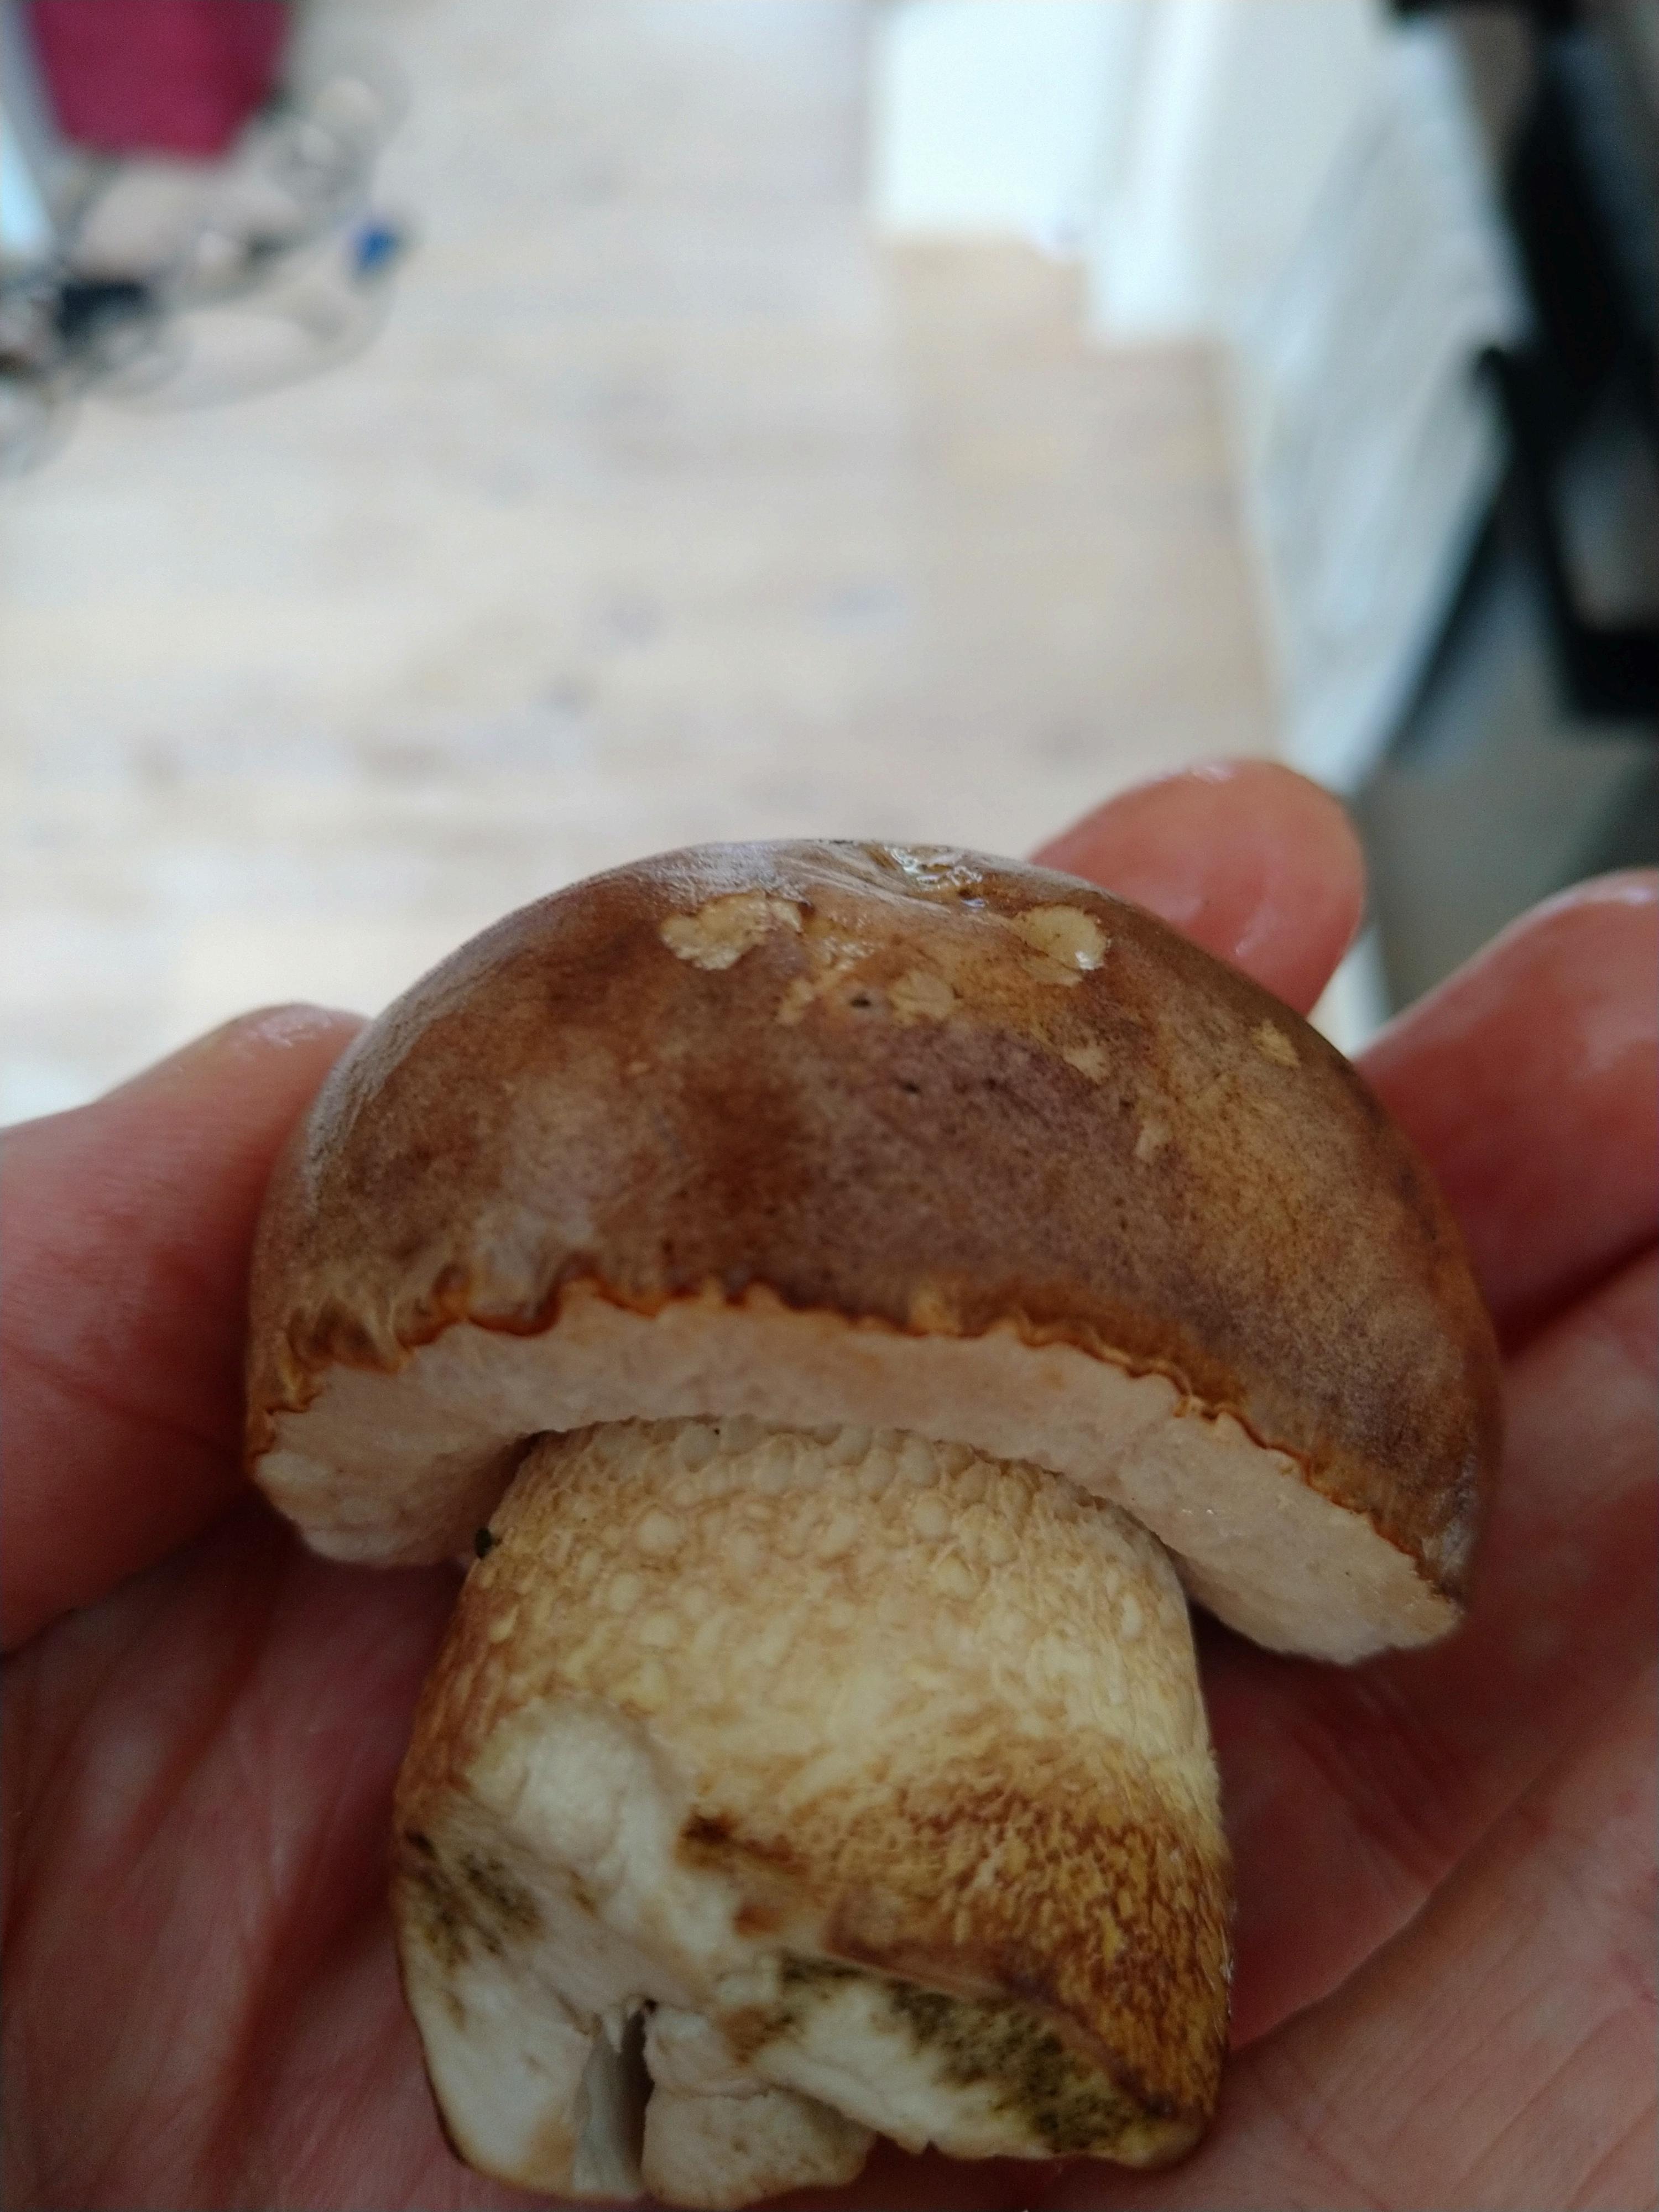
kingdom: Fungi
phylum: Basidiomycota
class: Agaricomycetes
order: Boletales
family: Boletaceae
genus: Tylopilus
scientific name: Tylopilus felleus
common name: galderørhat
